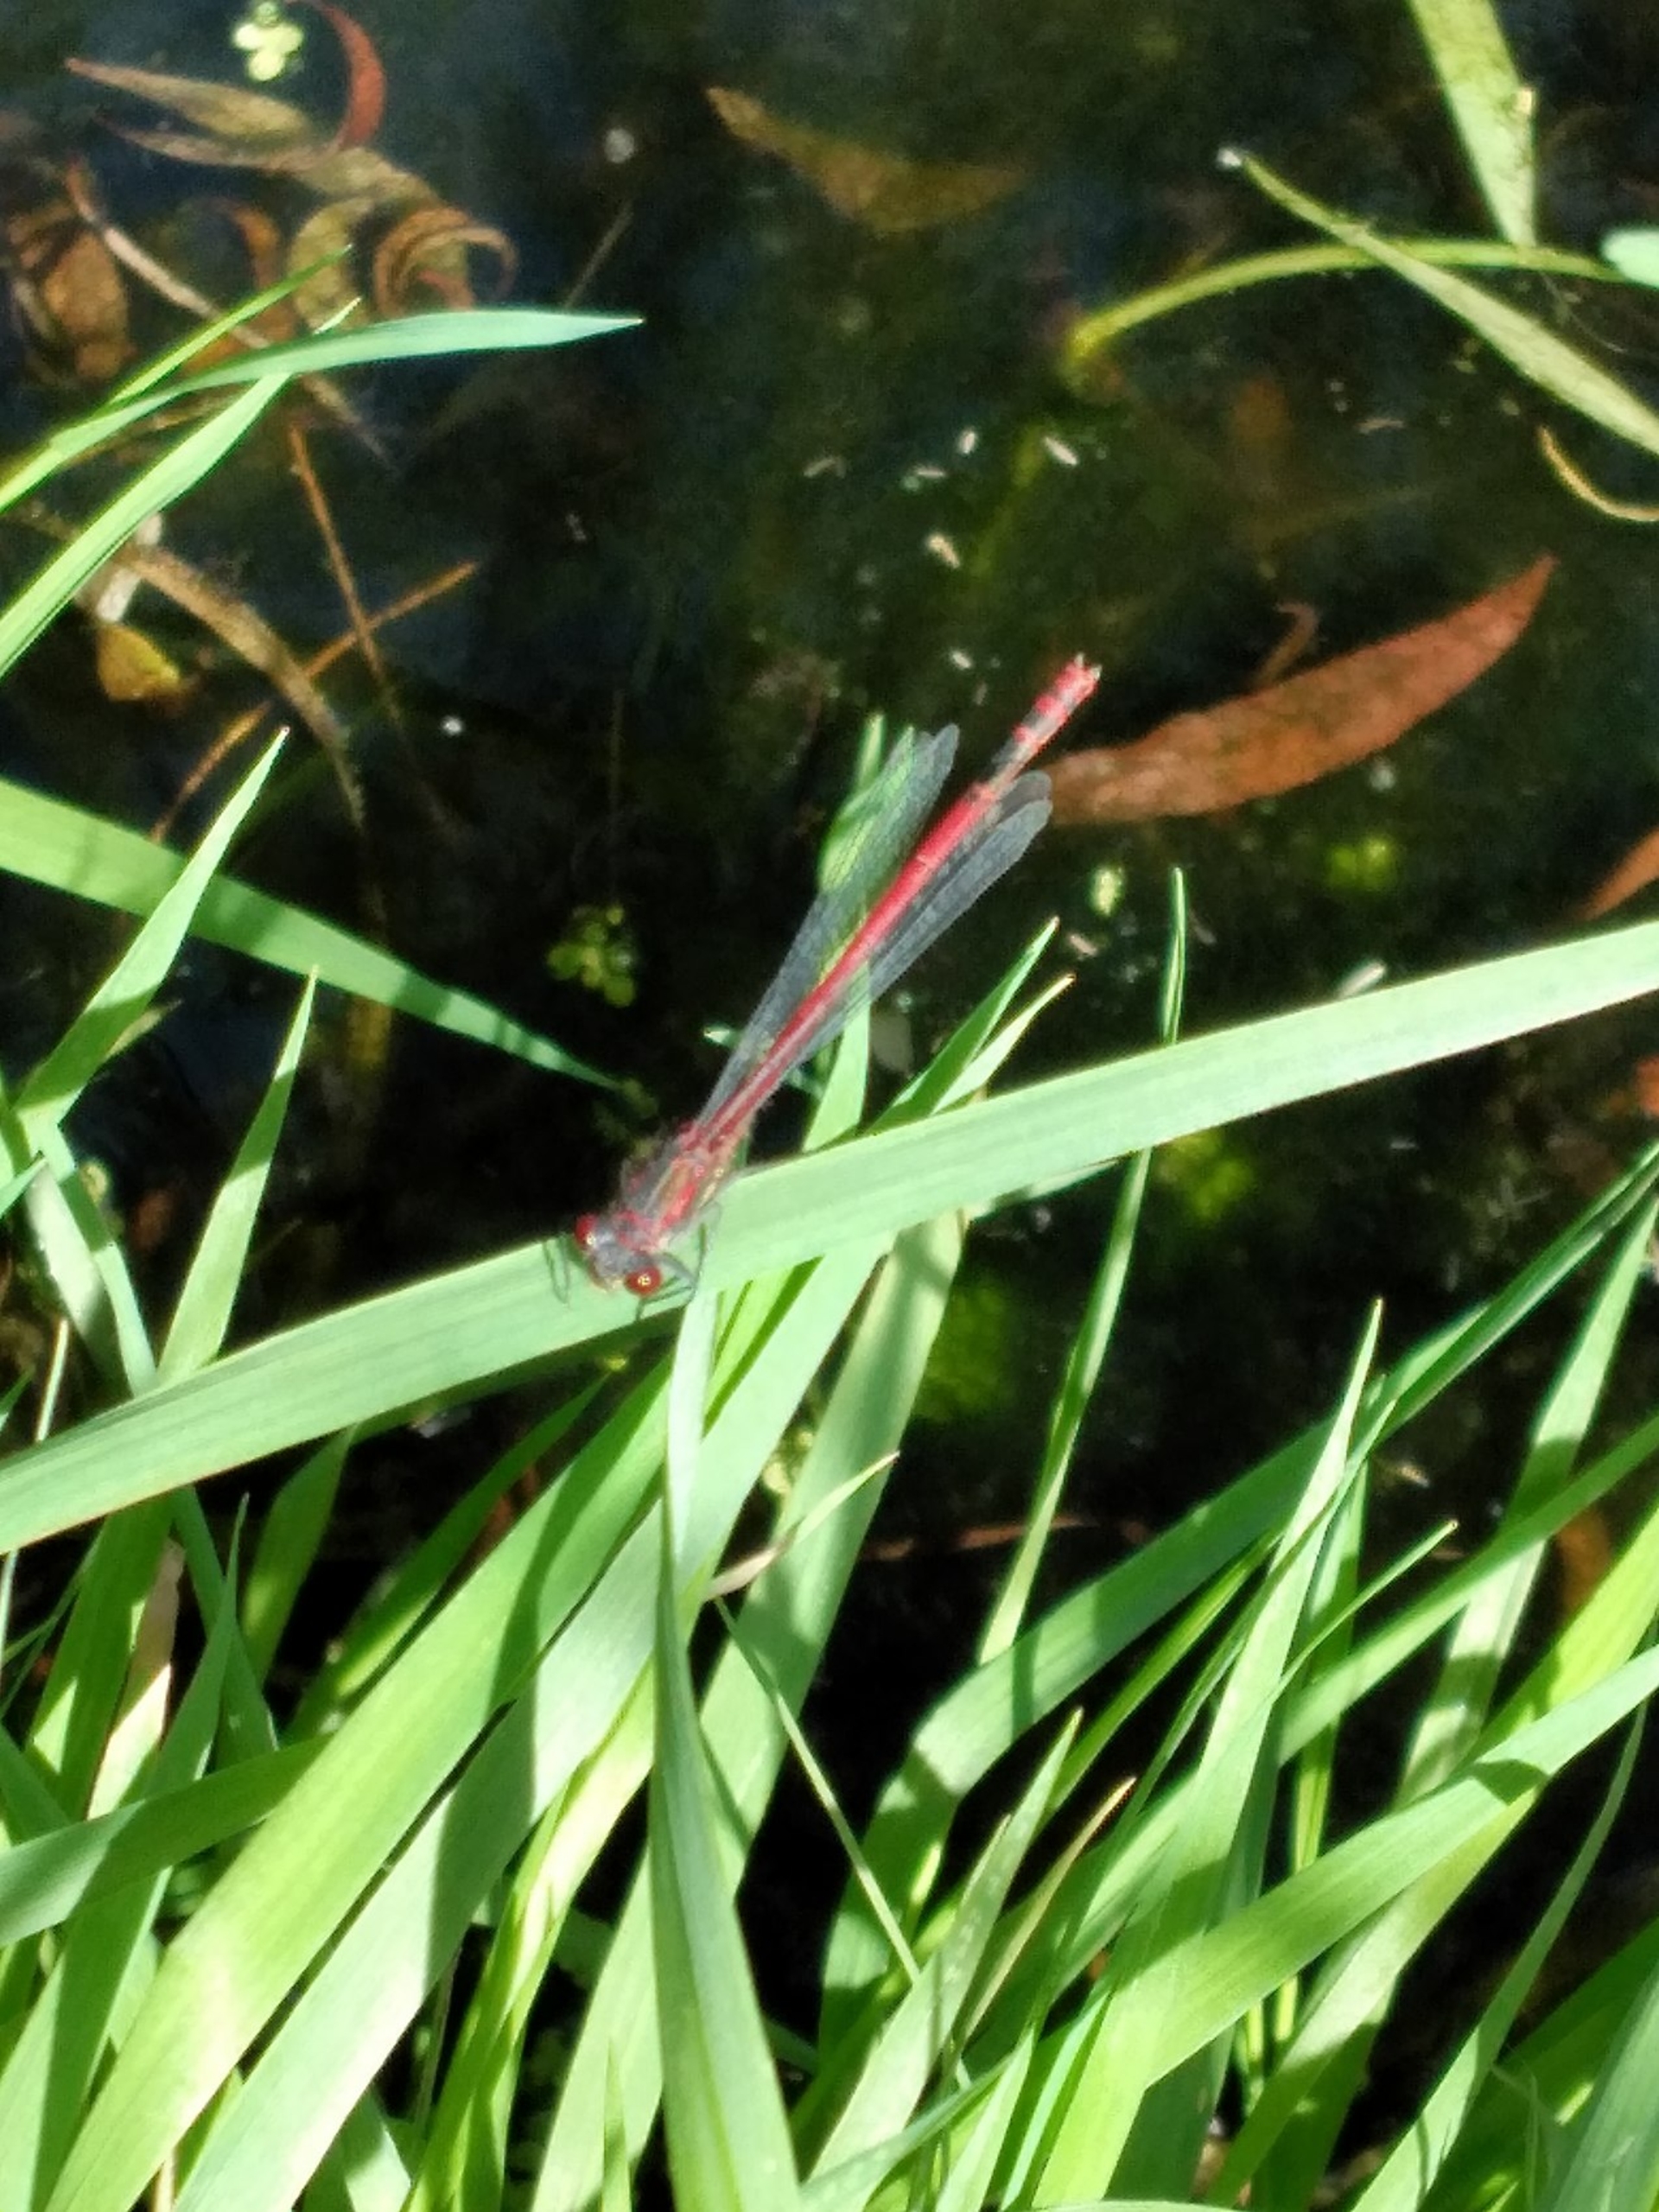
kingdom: Animalia
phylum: Arthropoda
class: Insecta
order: Odonata
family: Coenagrionidae
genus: Pyrrhosoma
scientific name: Pyrrhosoma nymphula
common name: Rød vandnymfe
